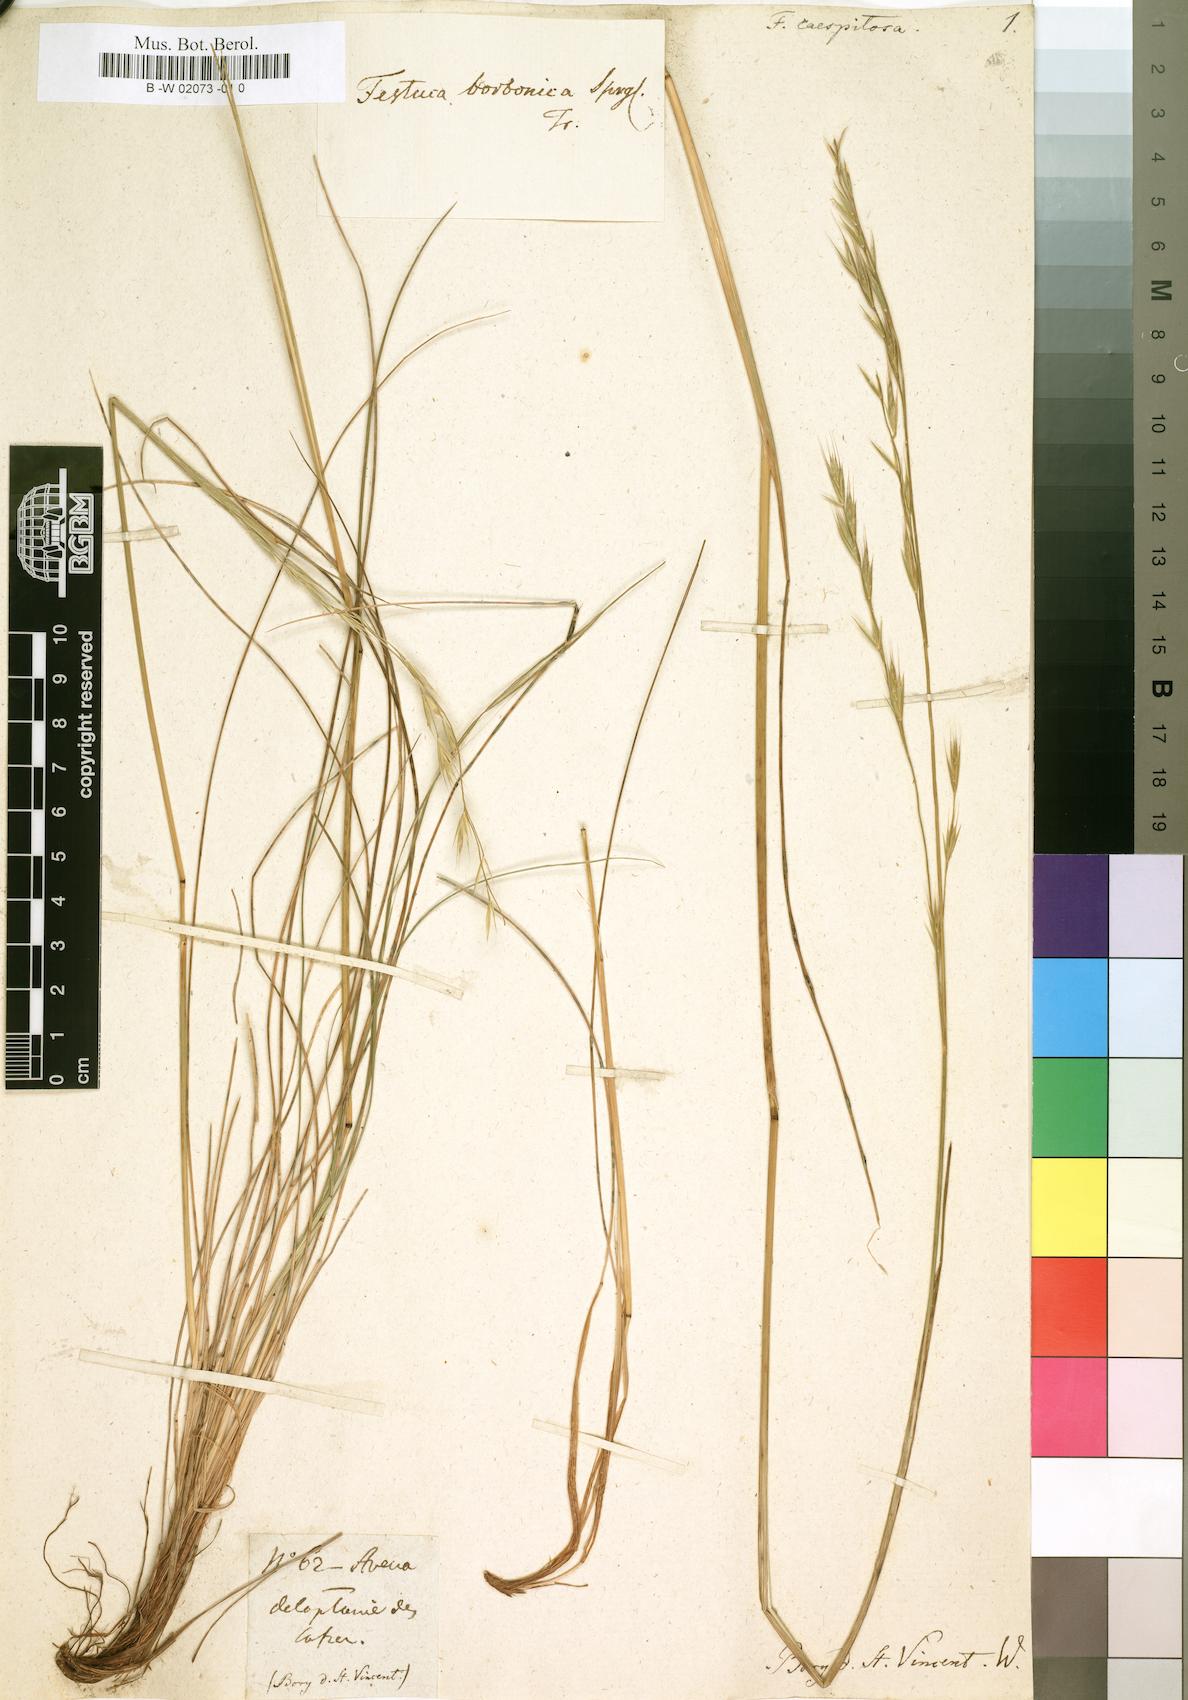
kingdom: Plantae
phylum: Tracheophyta
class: Liliopsida
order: Poales
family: Poaceae
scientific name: Poaceae
